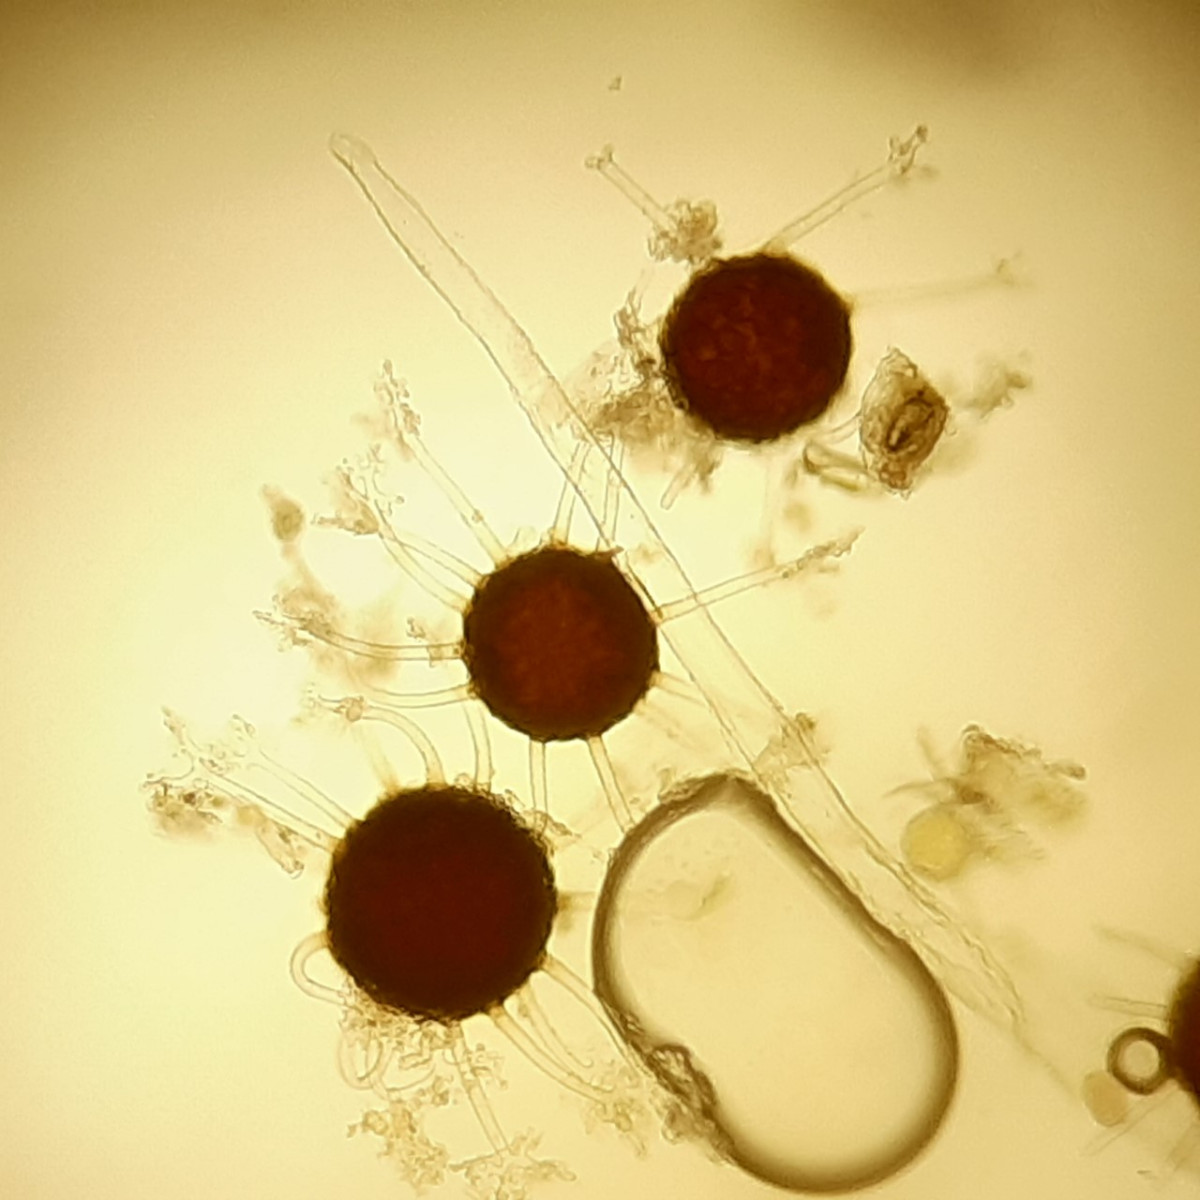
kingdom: Fungi
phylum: Ascomycota
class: Leotiomycetes
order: Helotiales
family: Erysiphaceae
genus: Erysiphe
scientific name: Erysiphe penicillata
